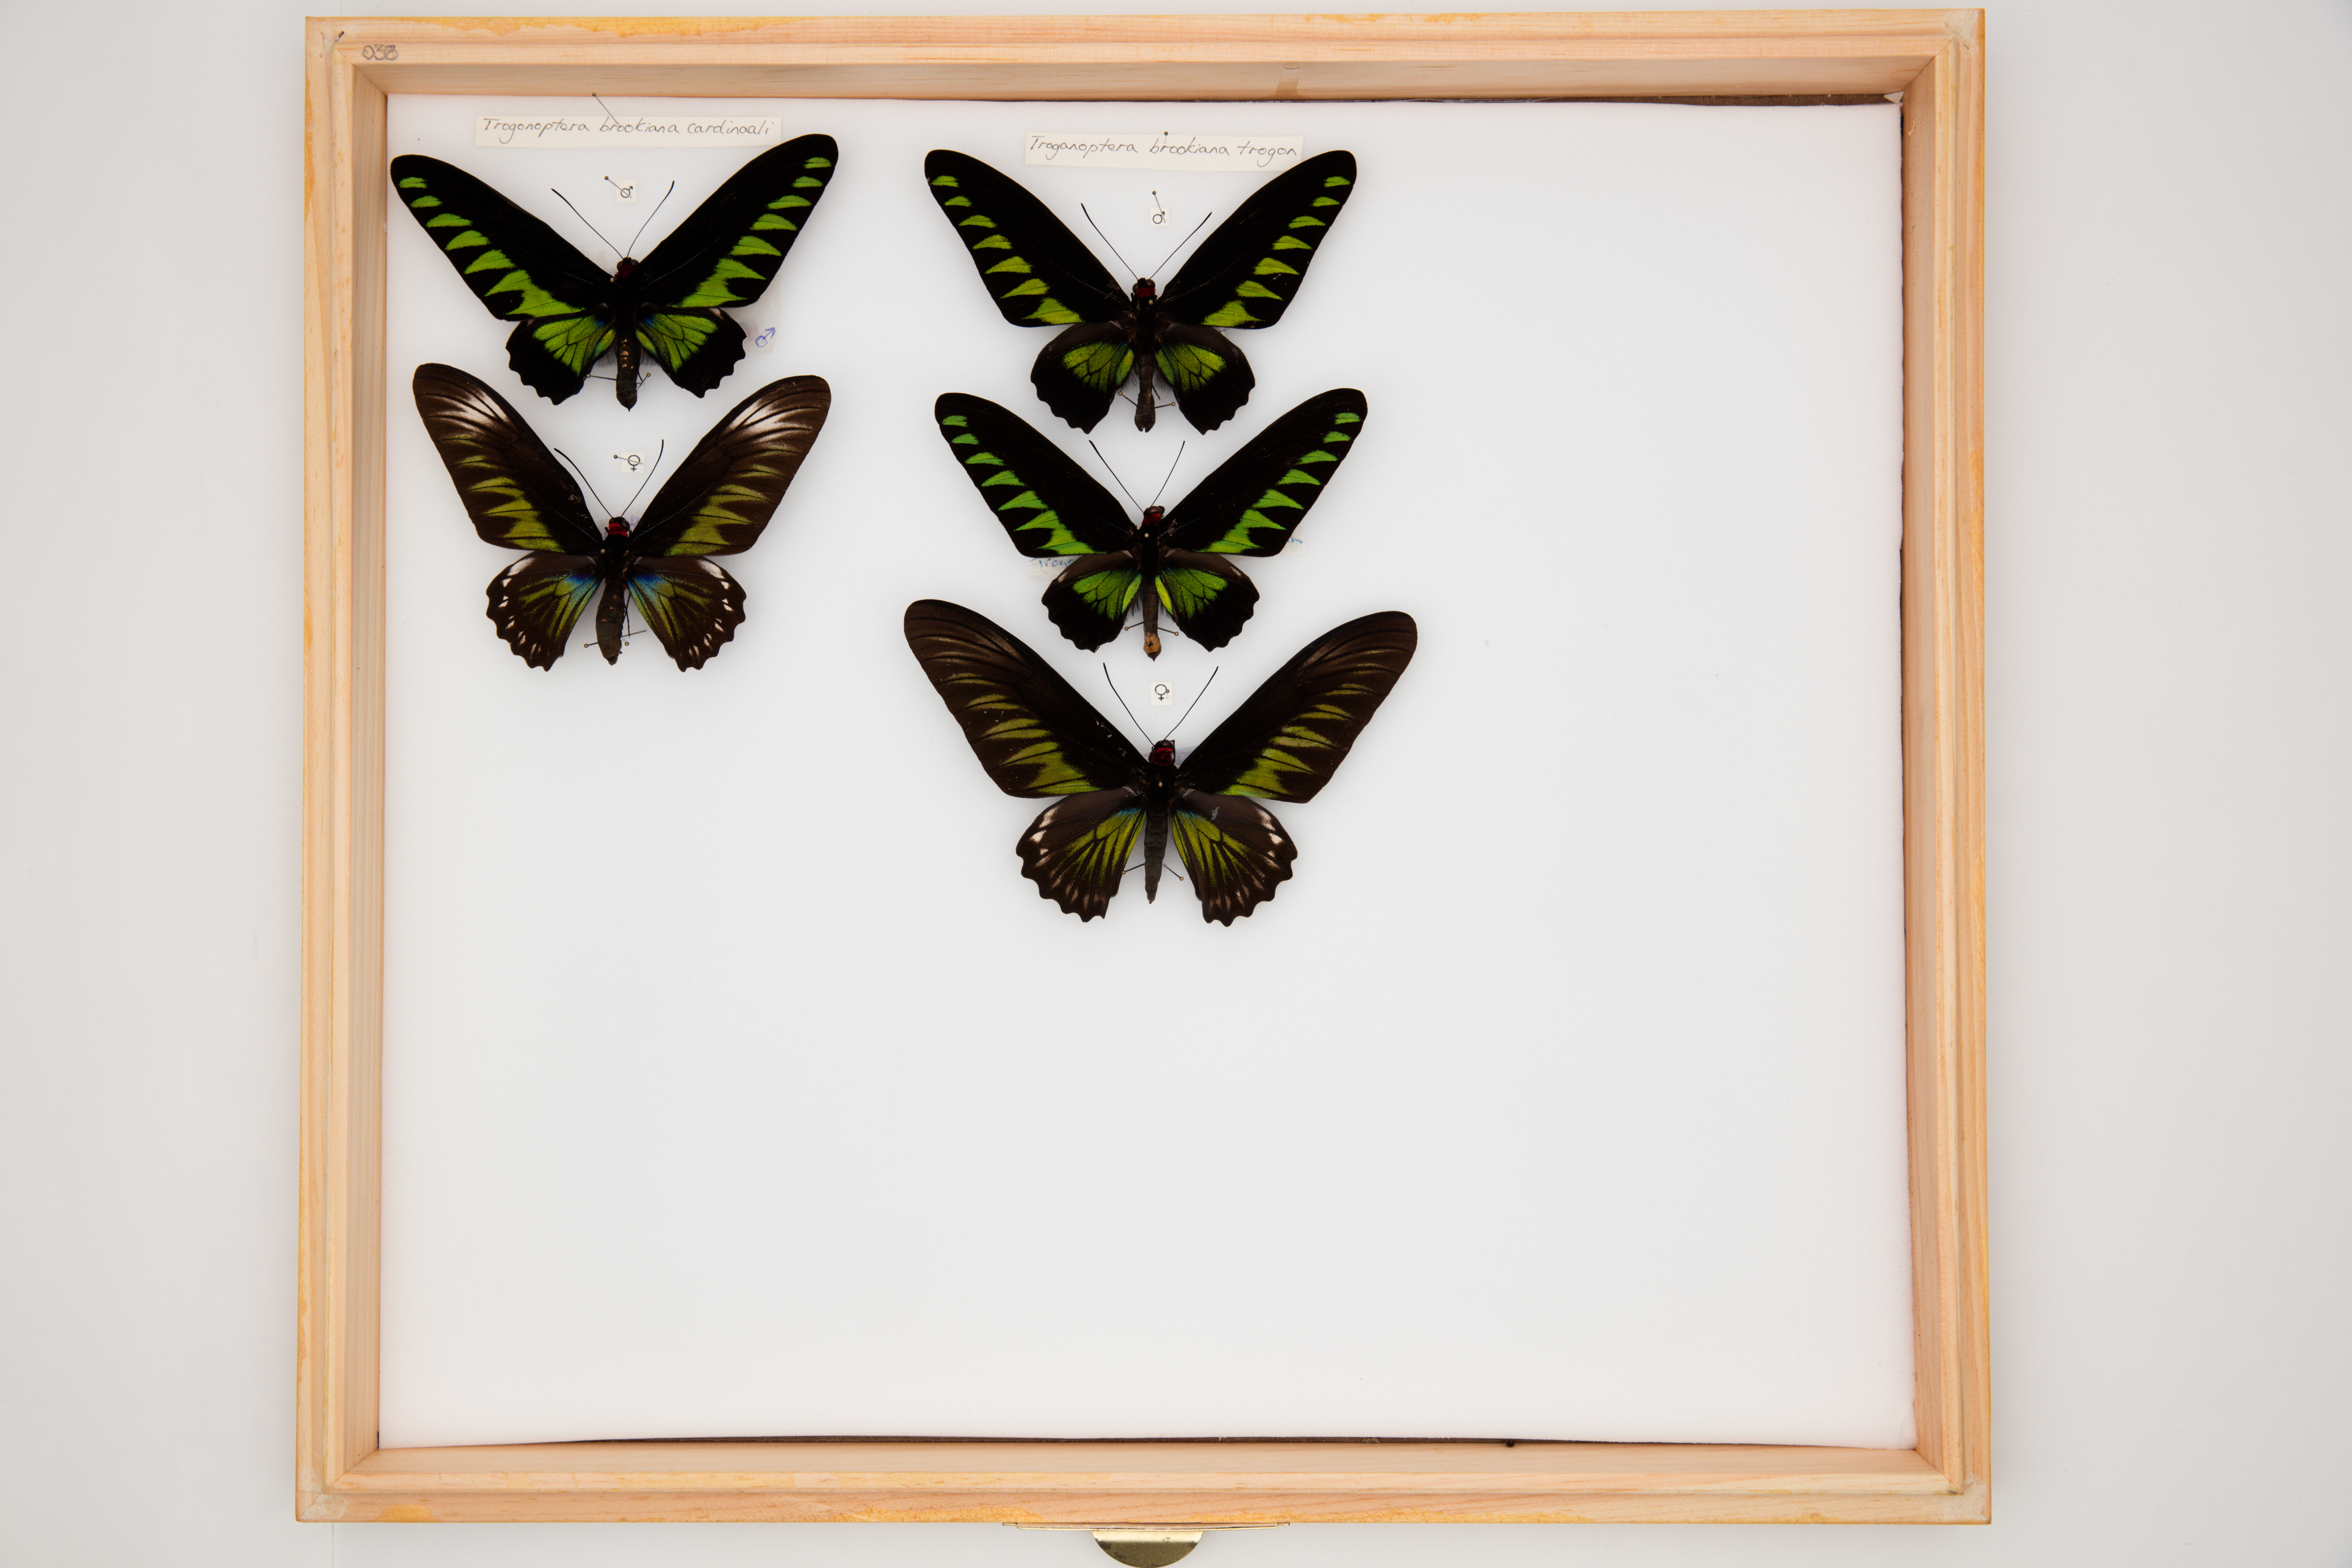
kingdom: Animalia
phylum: Arthropoda
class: Insecta
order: Lepidoptera
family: Papilionidae
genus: Trogonoptera
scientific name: Trogonoptera brookiana
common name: Raja brooke's birdwing
